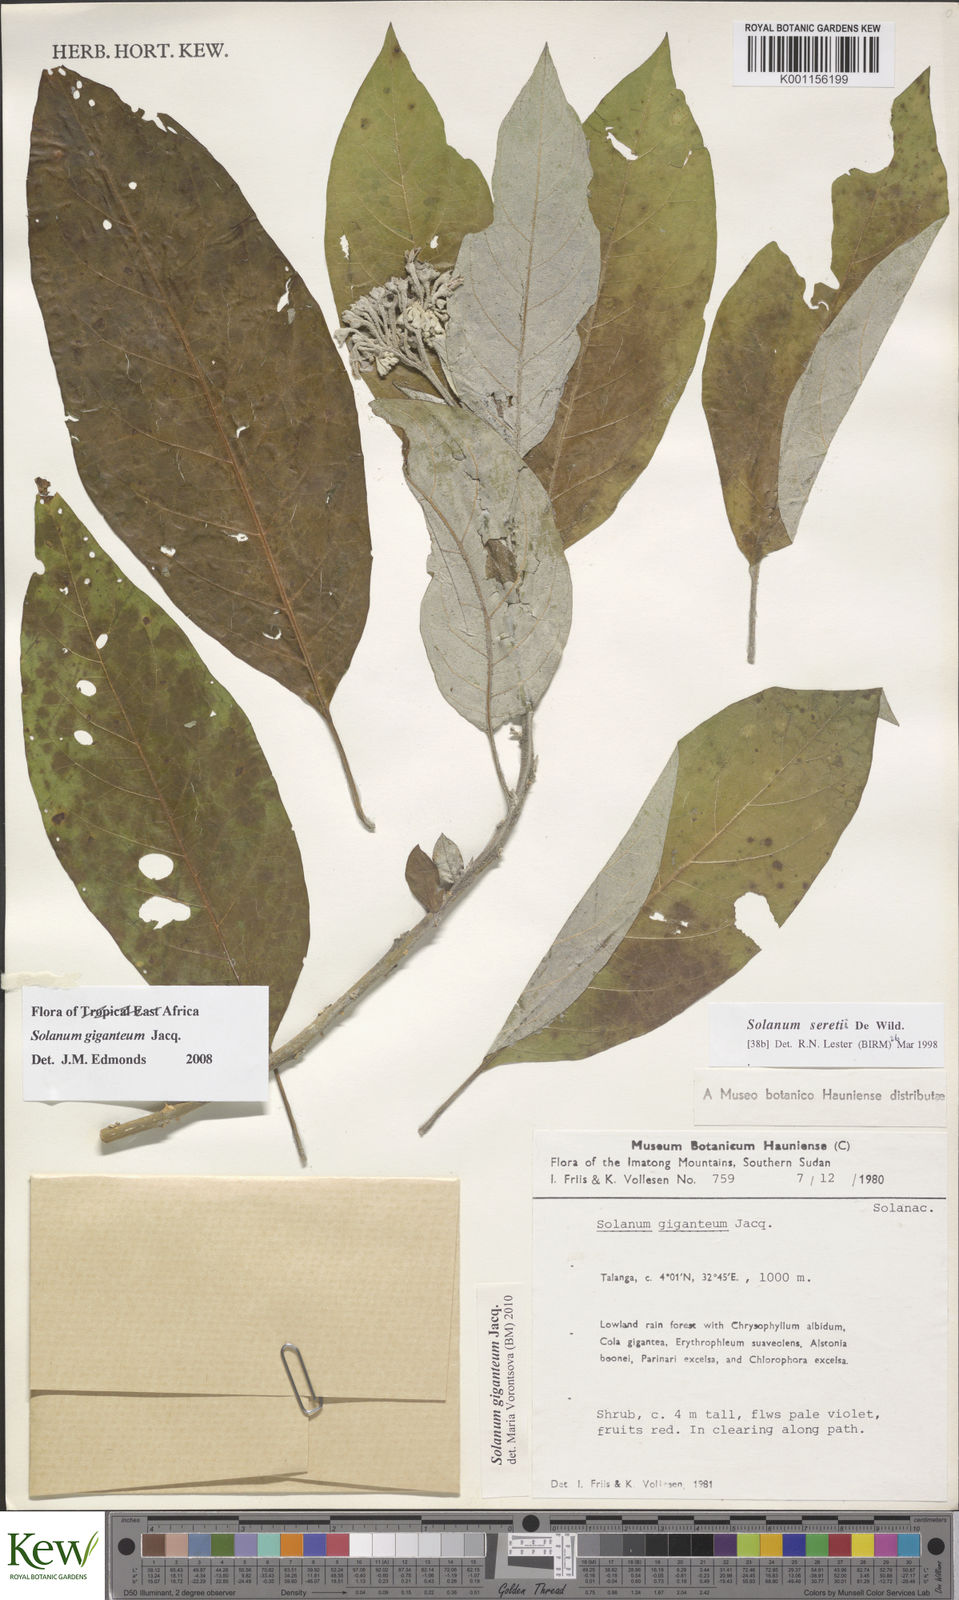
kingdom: Plantae
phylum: Tracheophyta
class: Magnoliopsida
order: Solanales
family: Solanaceae
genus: Solanum
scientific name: Solanum giganteum
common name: Healing-leaf-tree
